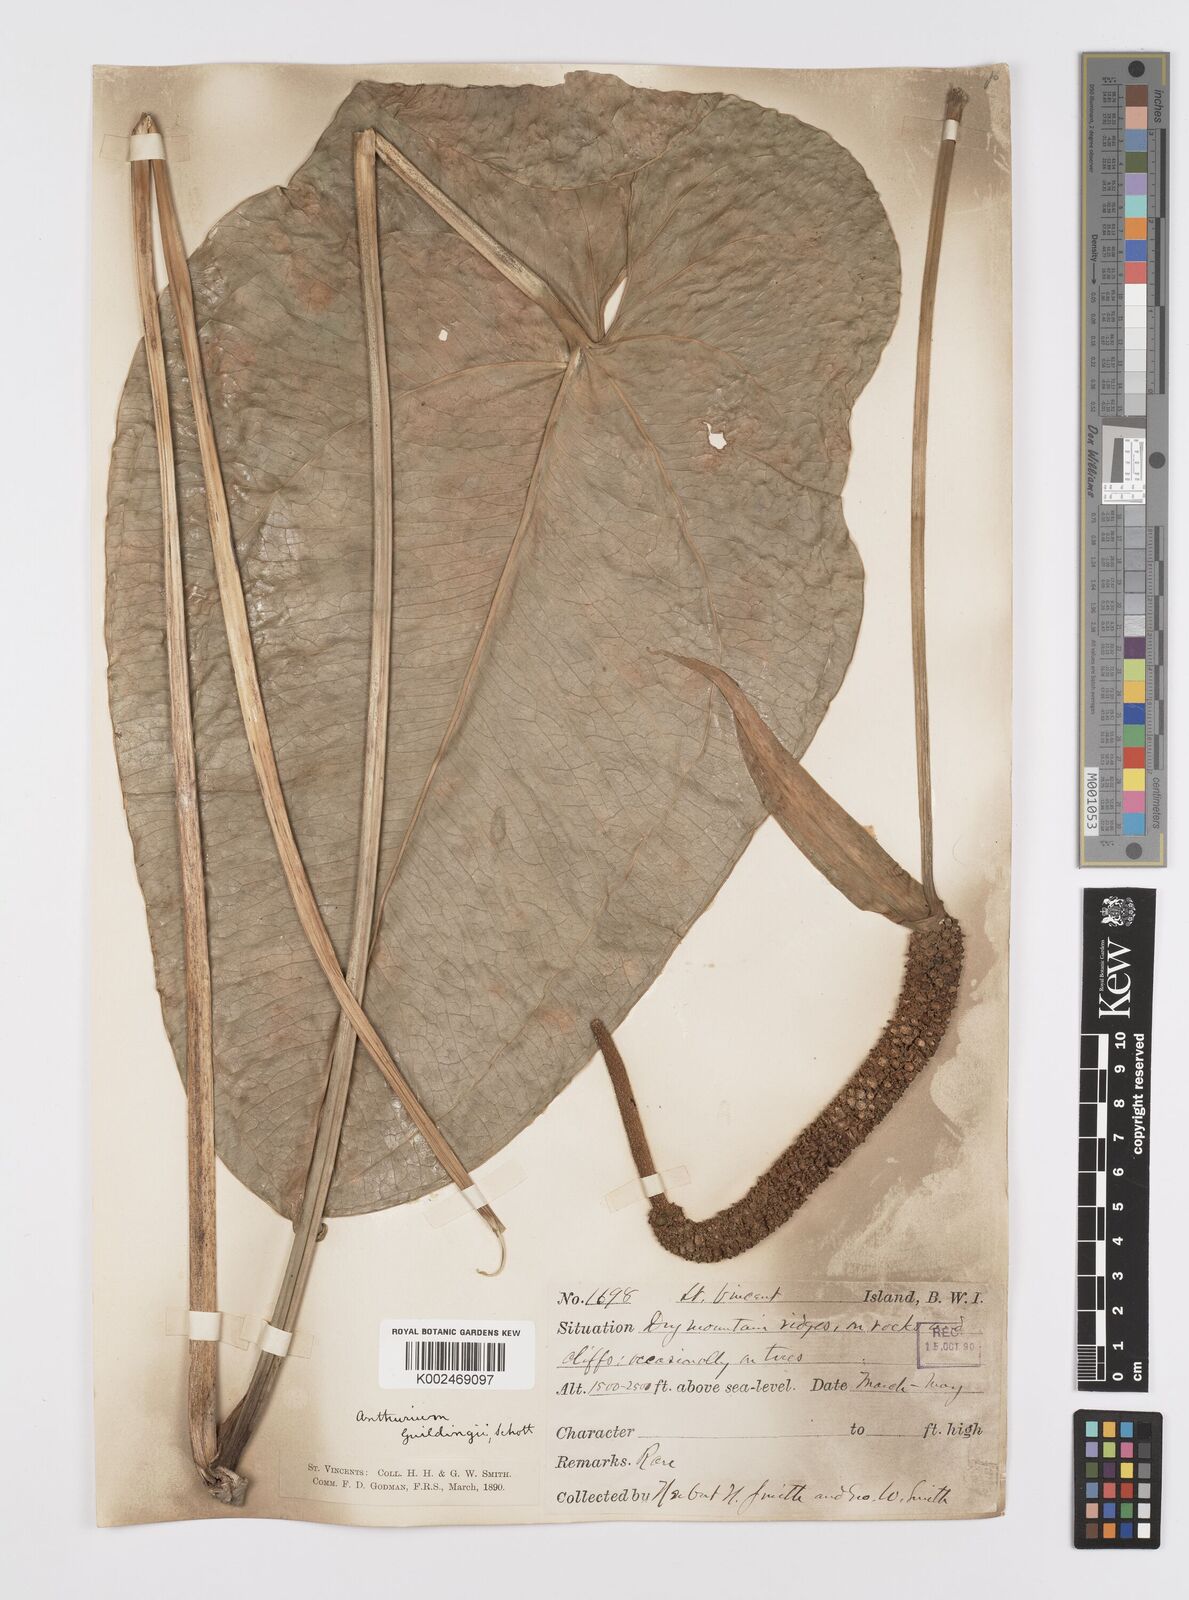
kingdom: Plantae
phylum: Tracheophyta
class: Liliopsida
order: Alismatales
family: Araceae
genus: Anthurium
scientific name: Anthurium
